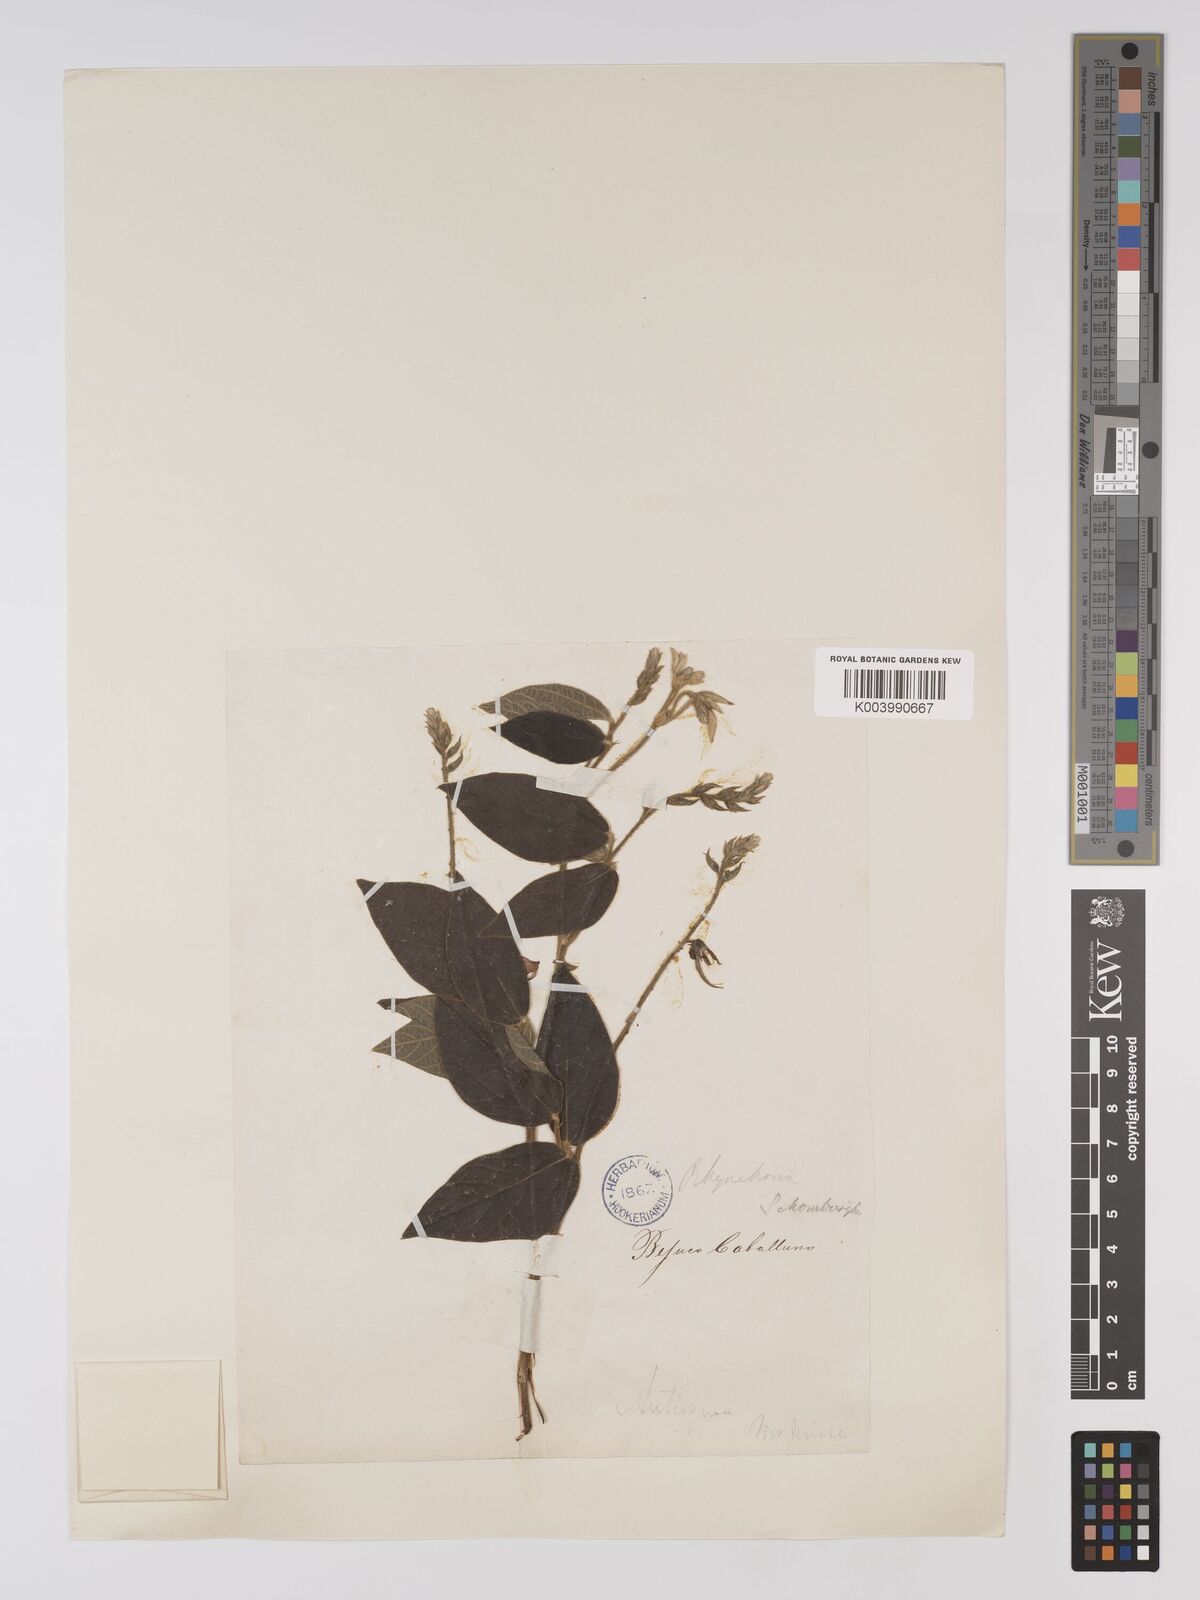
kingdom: Plantae
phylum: Tracheophyta
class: Magnoliopsida
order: Fabales
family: Fabaceae
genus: Rhynchosia
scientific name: Rhynchosia schomburgkii
